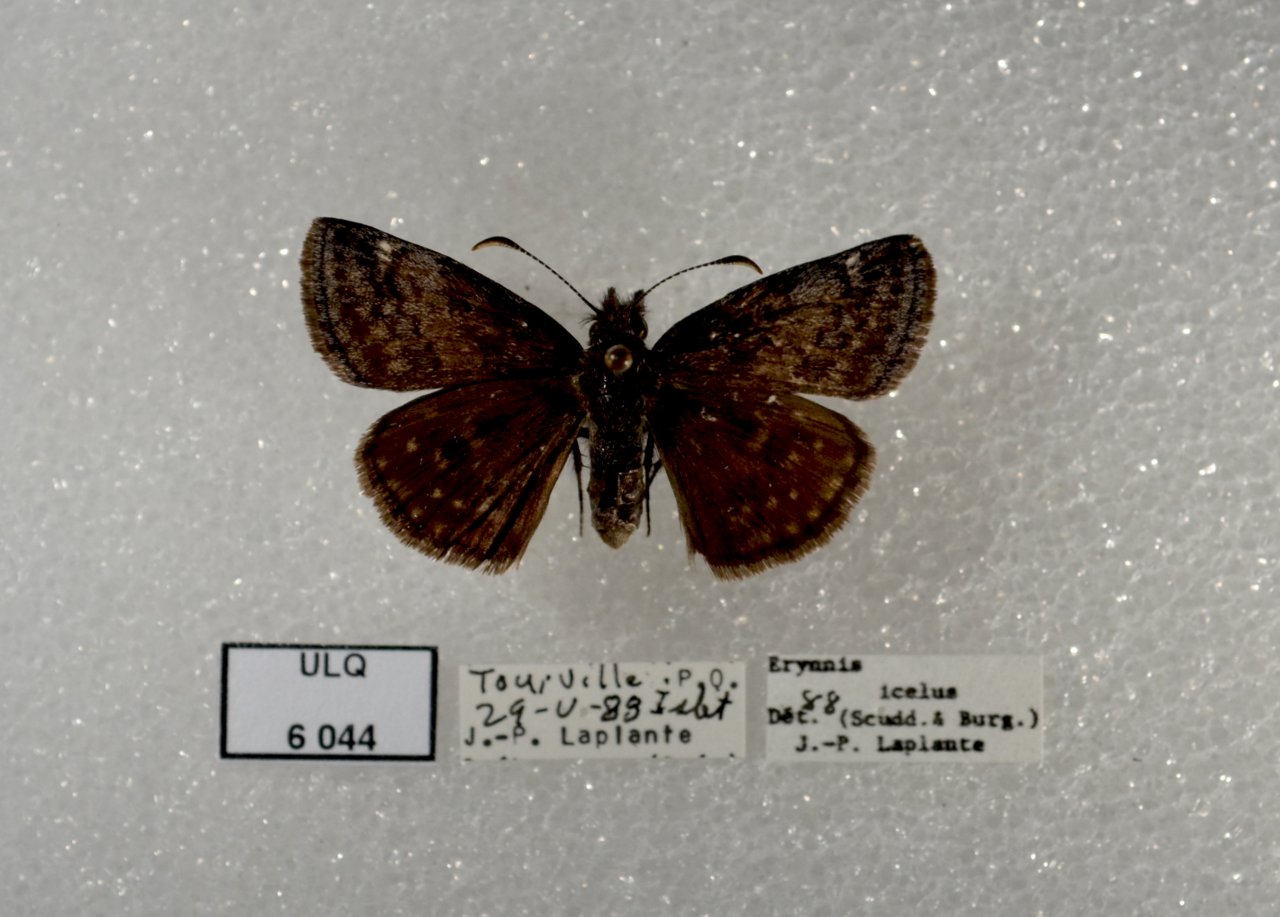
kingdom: Animalia
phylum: Arthropoda
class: Insecta
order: Lepidoptera
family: Hesperiidae
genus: Erynnis
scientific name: Erynnis icelus
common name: Dreamy Duskywing
